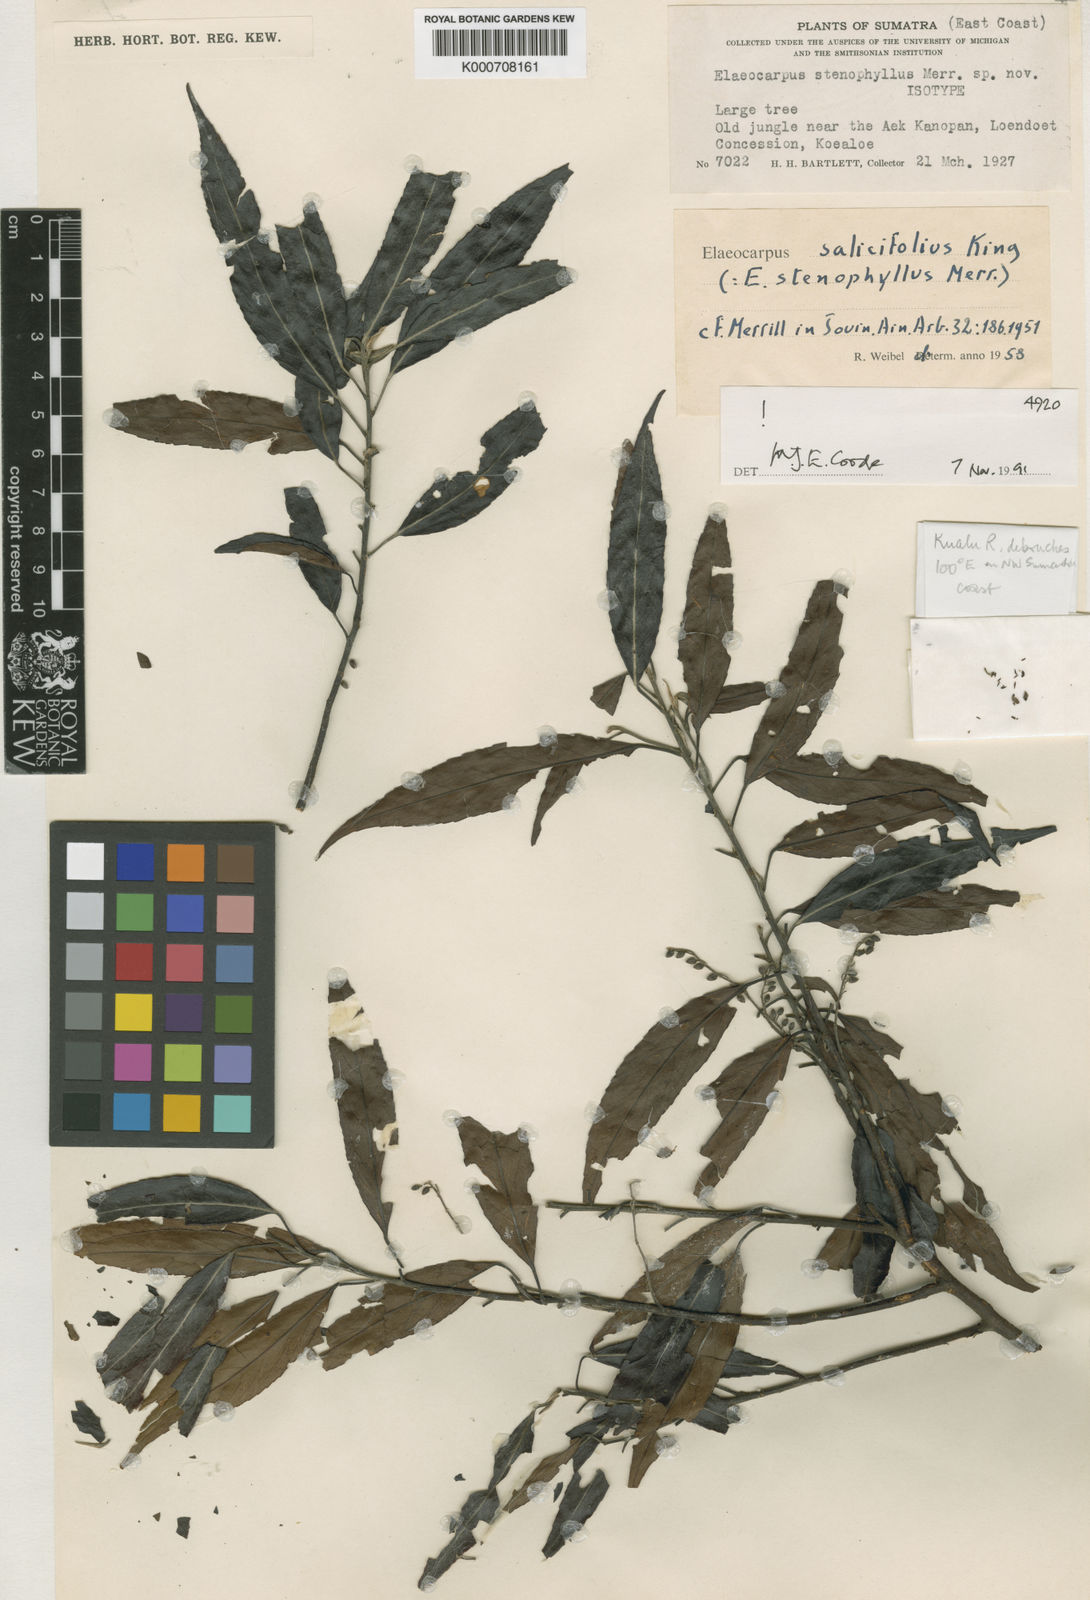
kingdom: Plantae
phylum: Tracheophyta
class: Magnoliopsida
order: Oxalidales
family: Elaeocarpaceae
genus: Elaeocarpus
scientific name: Elaeocarpus nitidus
